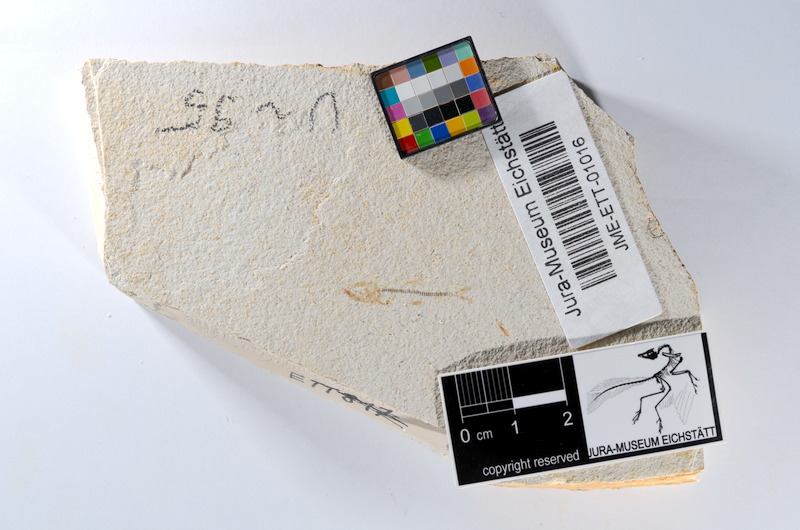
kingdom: Animalia
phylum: Chordata
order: Salmoniformes
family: Orthogonikleithridae
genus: Orthogonikleithrus
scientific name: Orthogonikleithrus hoelli
